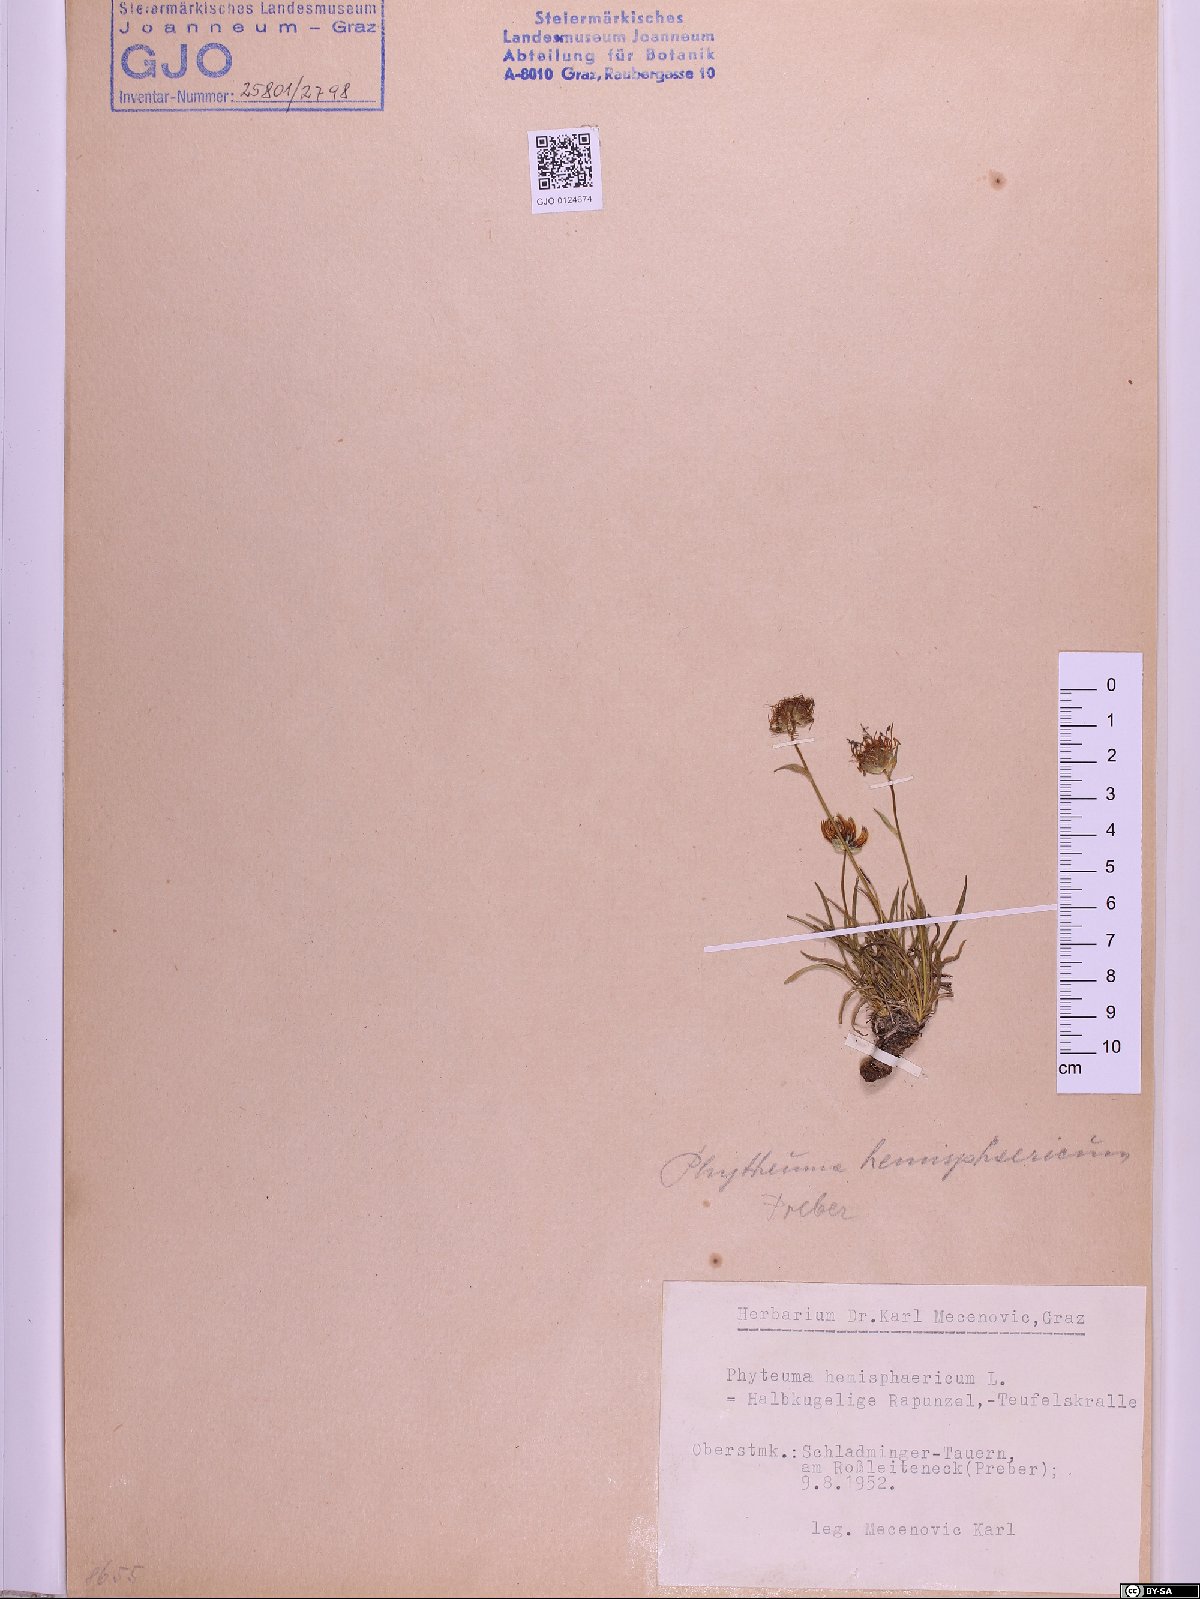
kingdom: Plantae
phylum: Tracheophyta
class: Magnoliopsida
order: Asterales
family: Campanulaceae
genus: Phyteuma
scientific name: Phyteuma hemisphaericum
